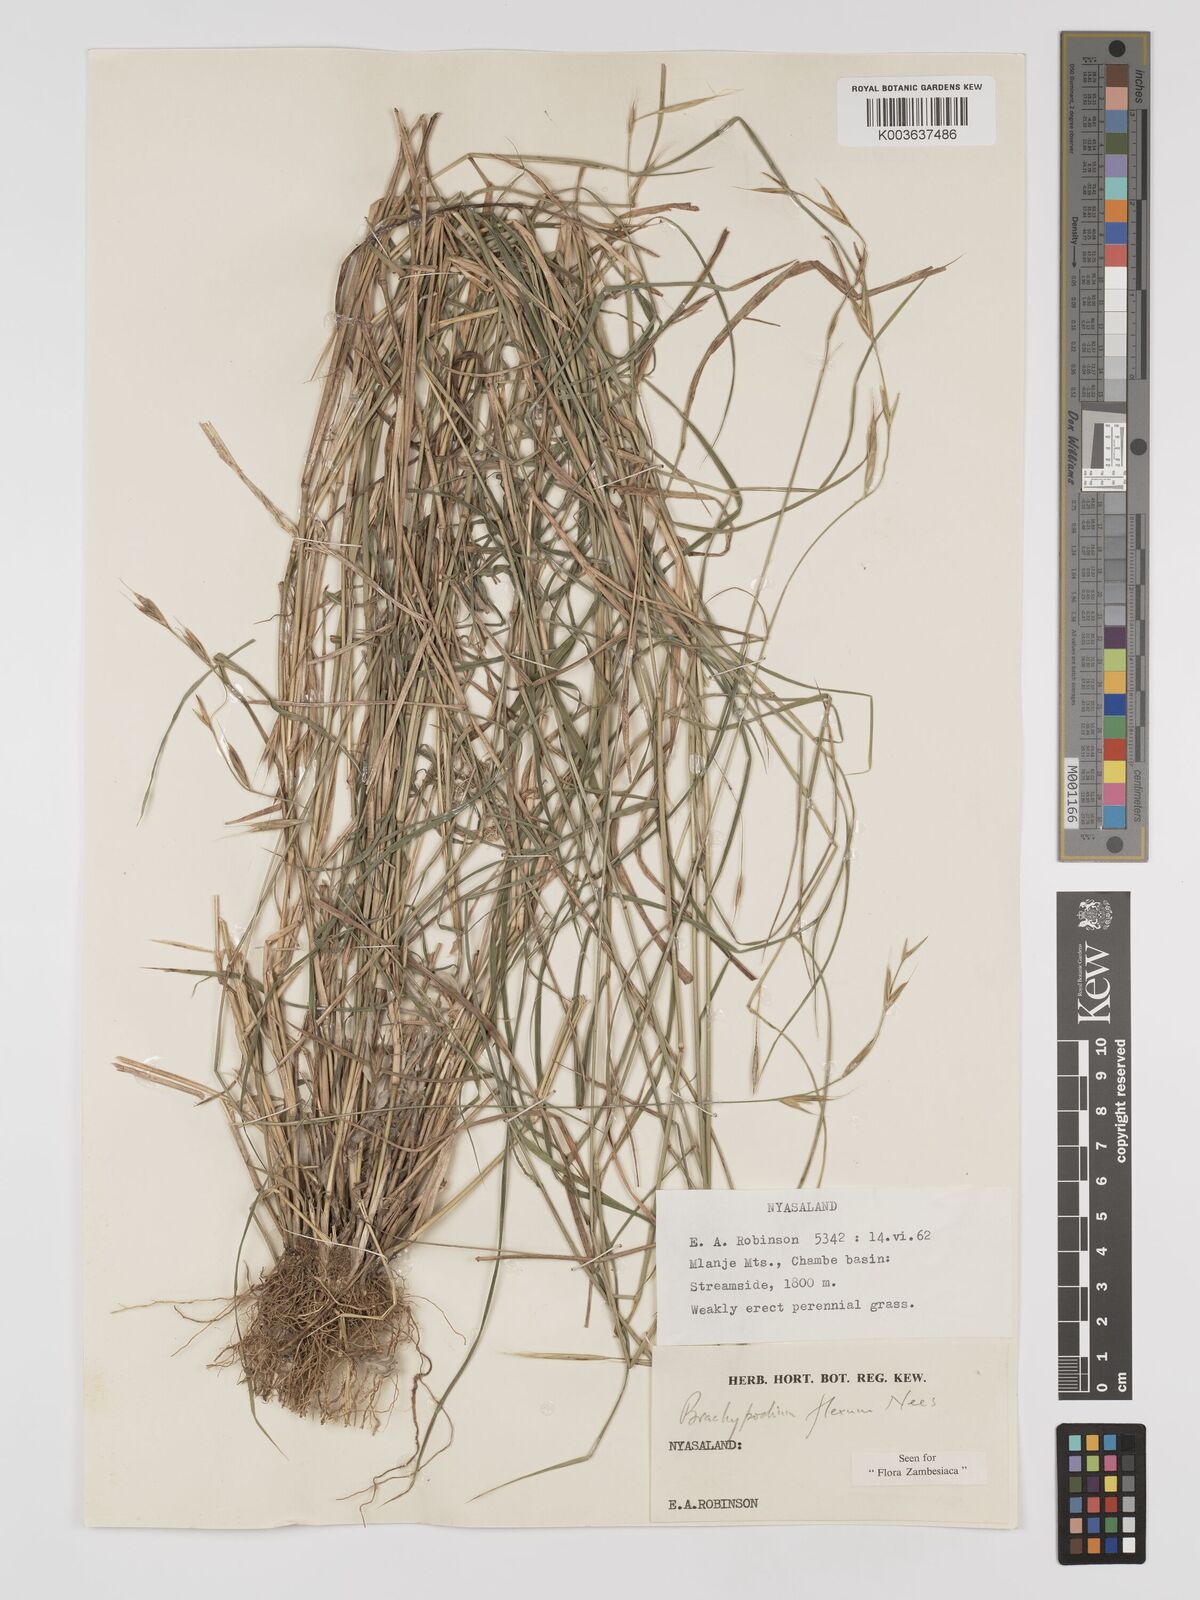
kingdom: Plantae
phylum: Tracheophyta
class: Liliopsida
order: Poales
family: Poaceae
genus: Brachypodium
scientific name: Brachypodium flexum
